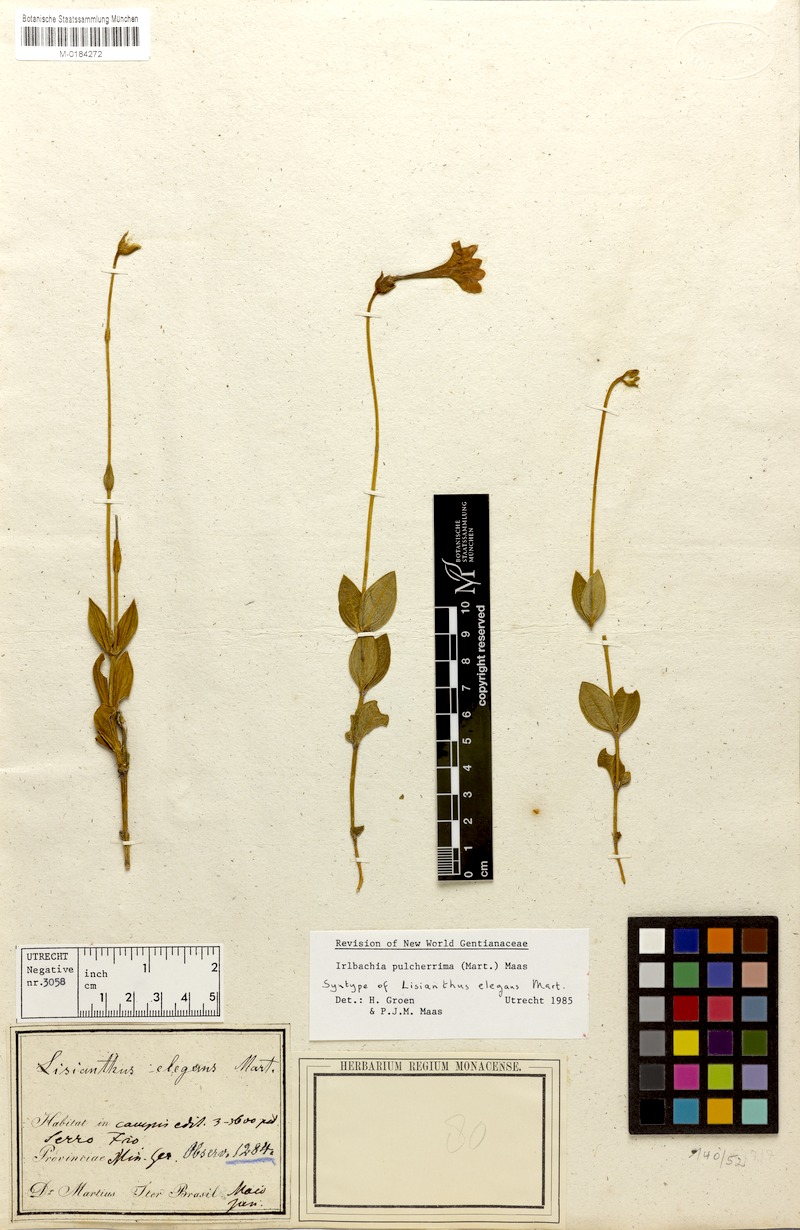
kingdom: Plantae
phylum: Tracheophyta
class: Magnoliopsida
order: Gentianales
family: Gentianaceae
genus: Calolisianthus
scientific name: Calolisianthus pulcherrimus
